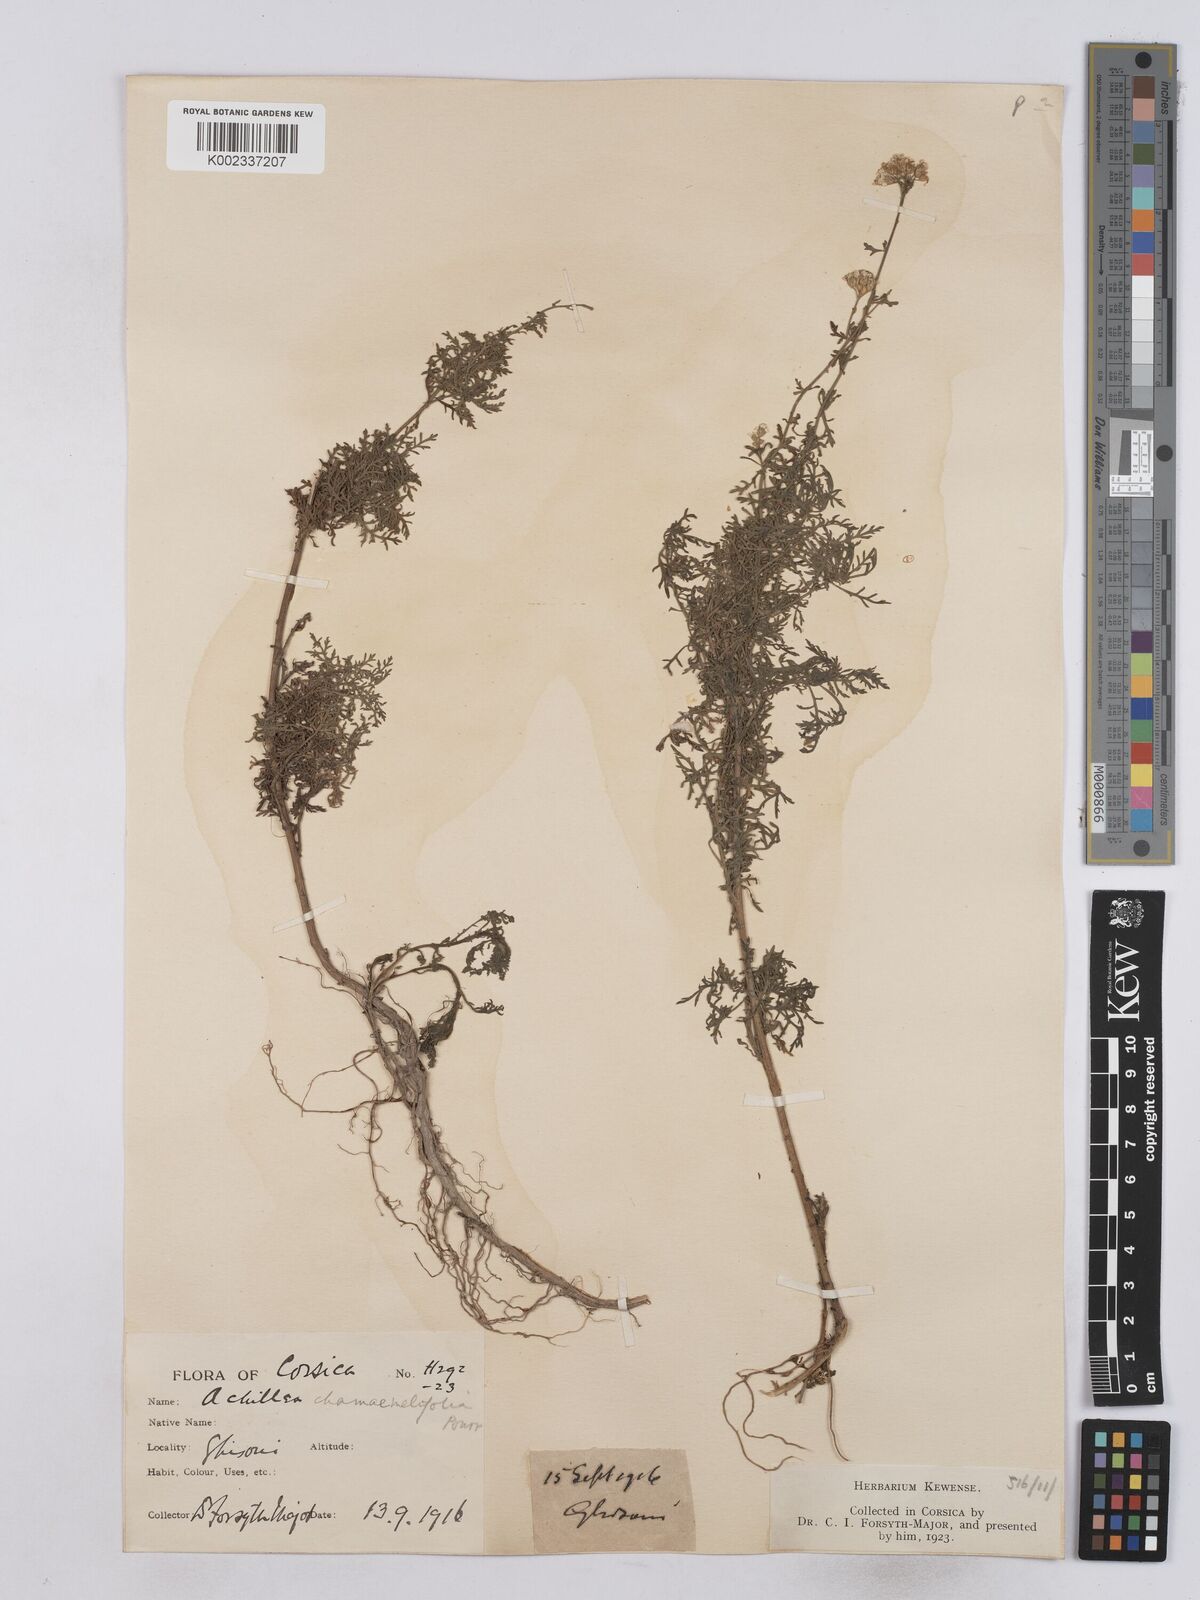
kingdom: Plantae
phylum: Tracheophyta
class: Magnoliopsida
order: Asterales
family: Asteraceae
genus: Achillea
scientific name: Achillea chamaemelifolia
